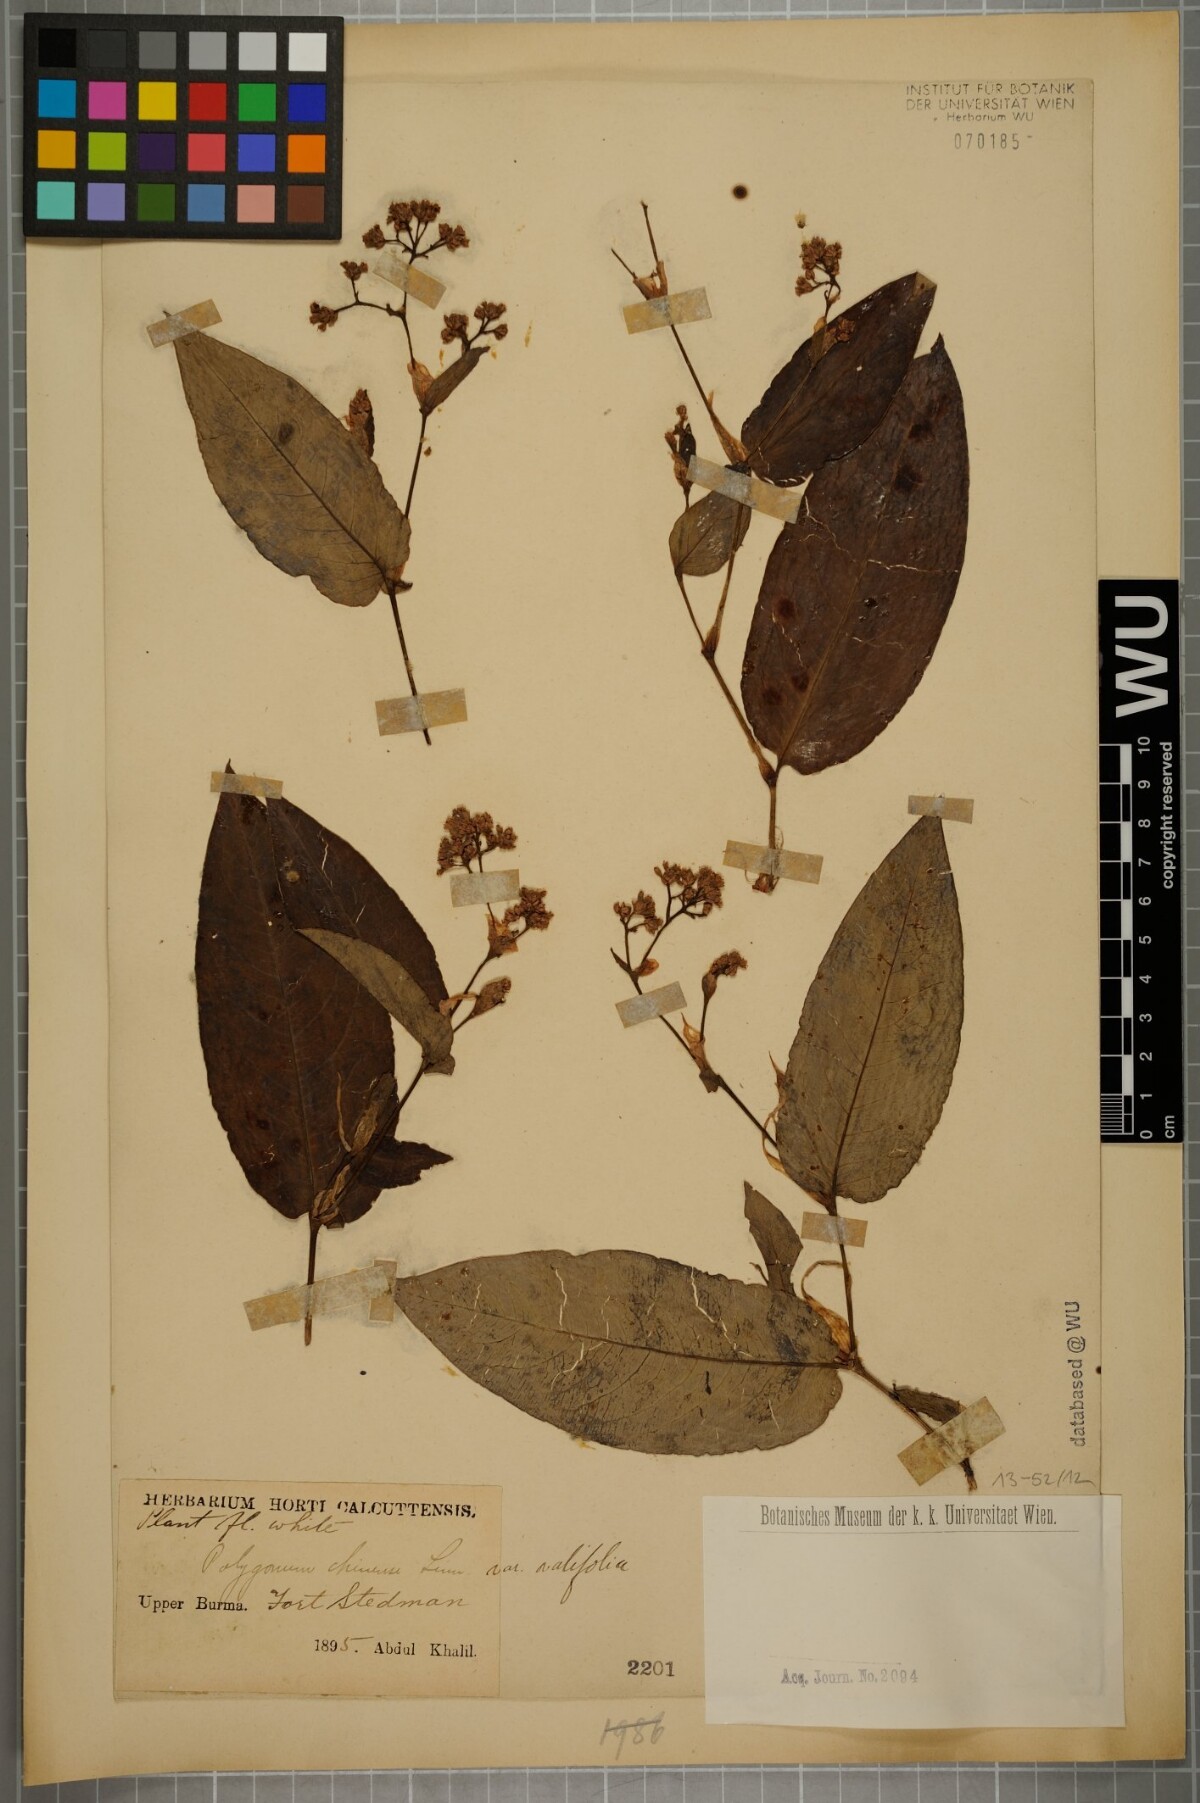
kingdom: Plantae
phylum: Tracheophyta
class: Magnoliopsida
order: Caryophyllales
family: Polygonaceae
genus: Persicaria
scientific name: Persicaria chinensis
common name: Chinese knotweed
